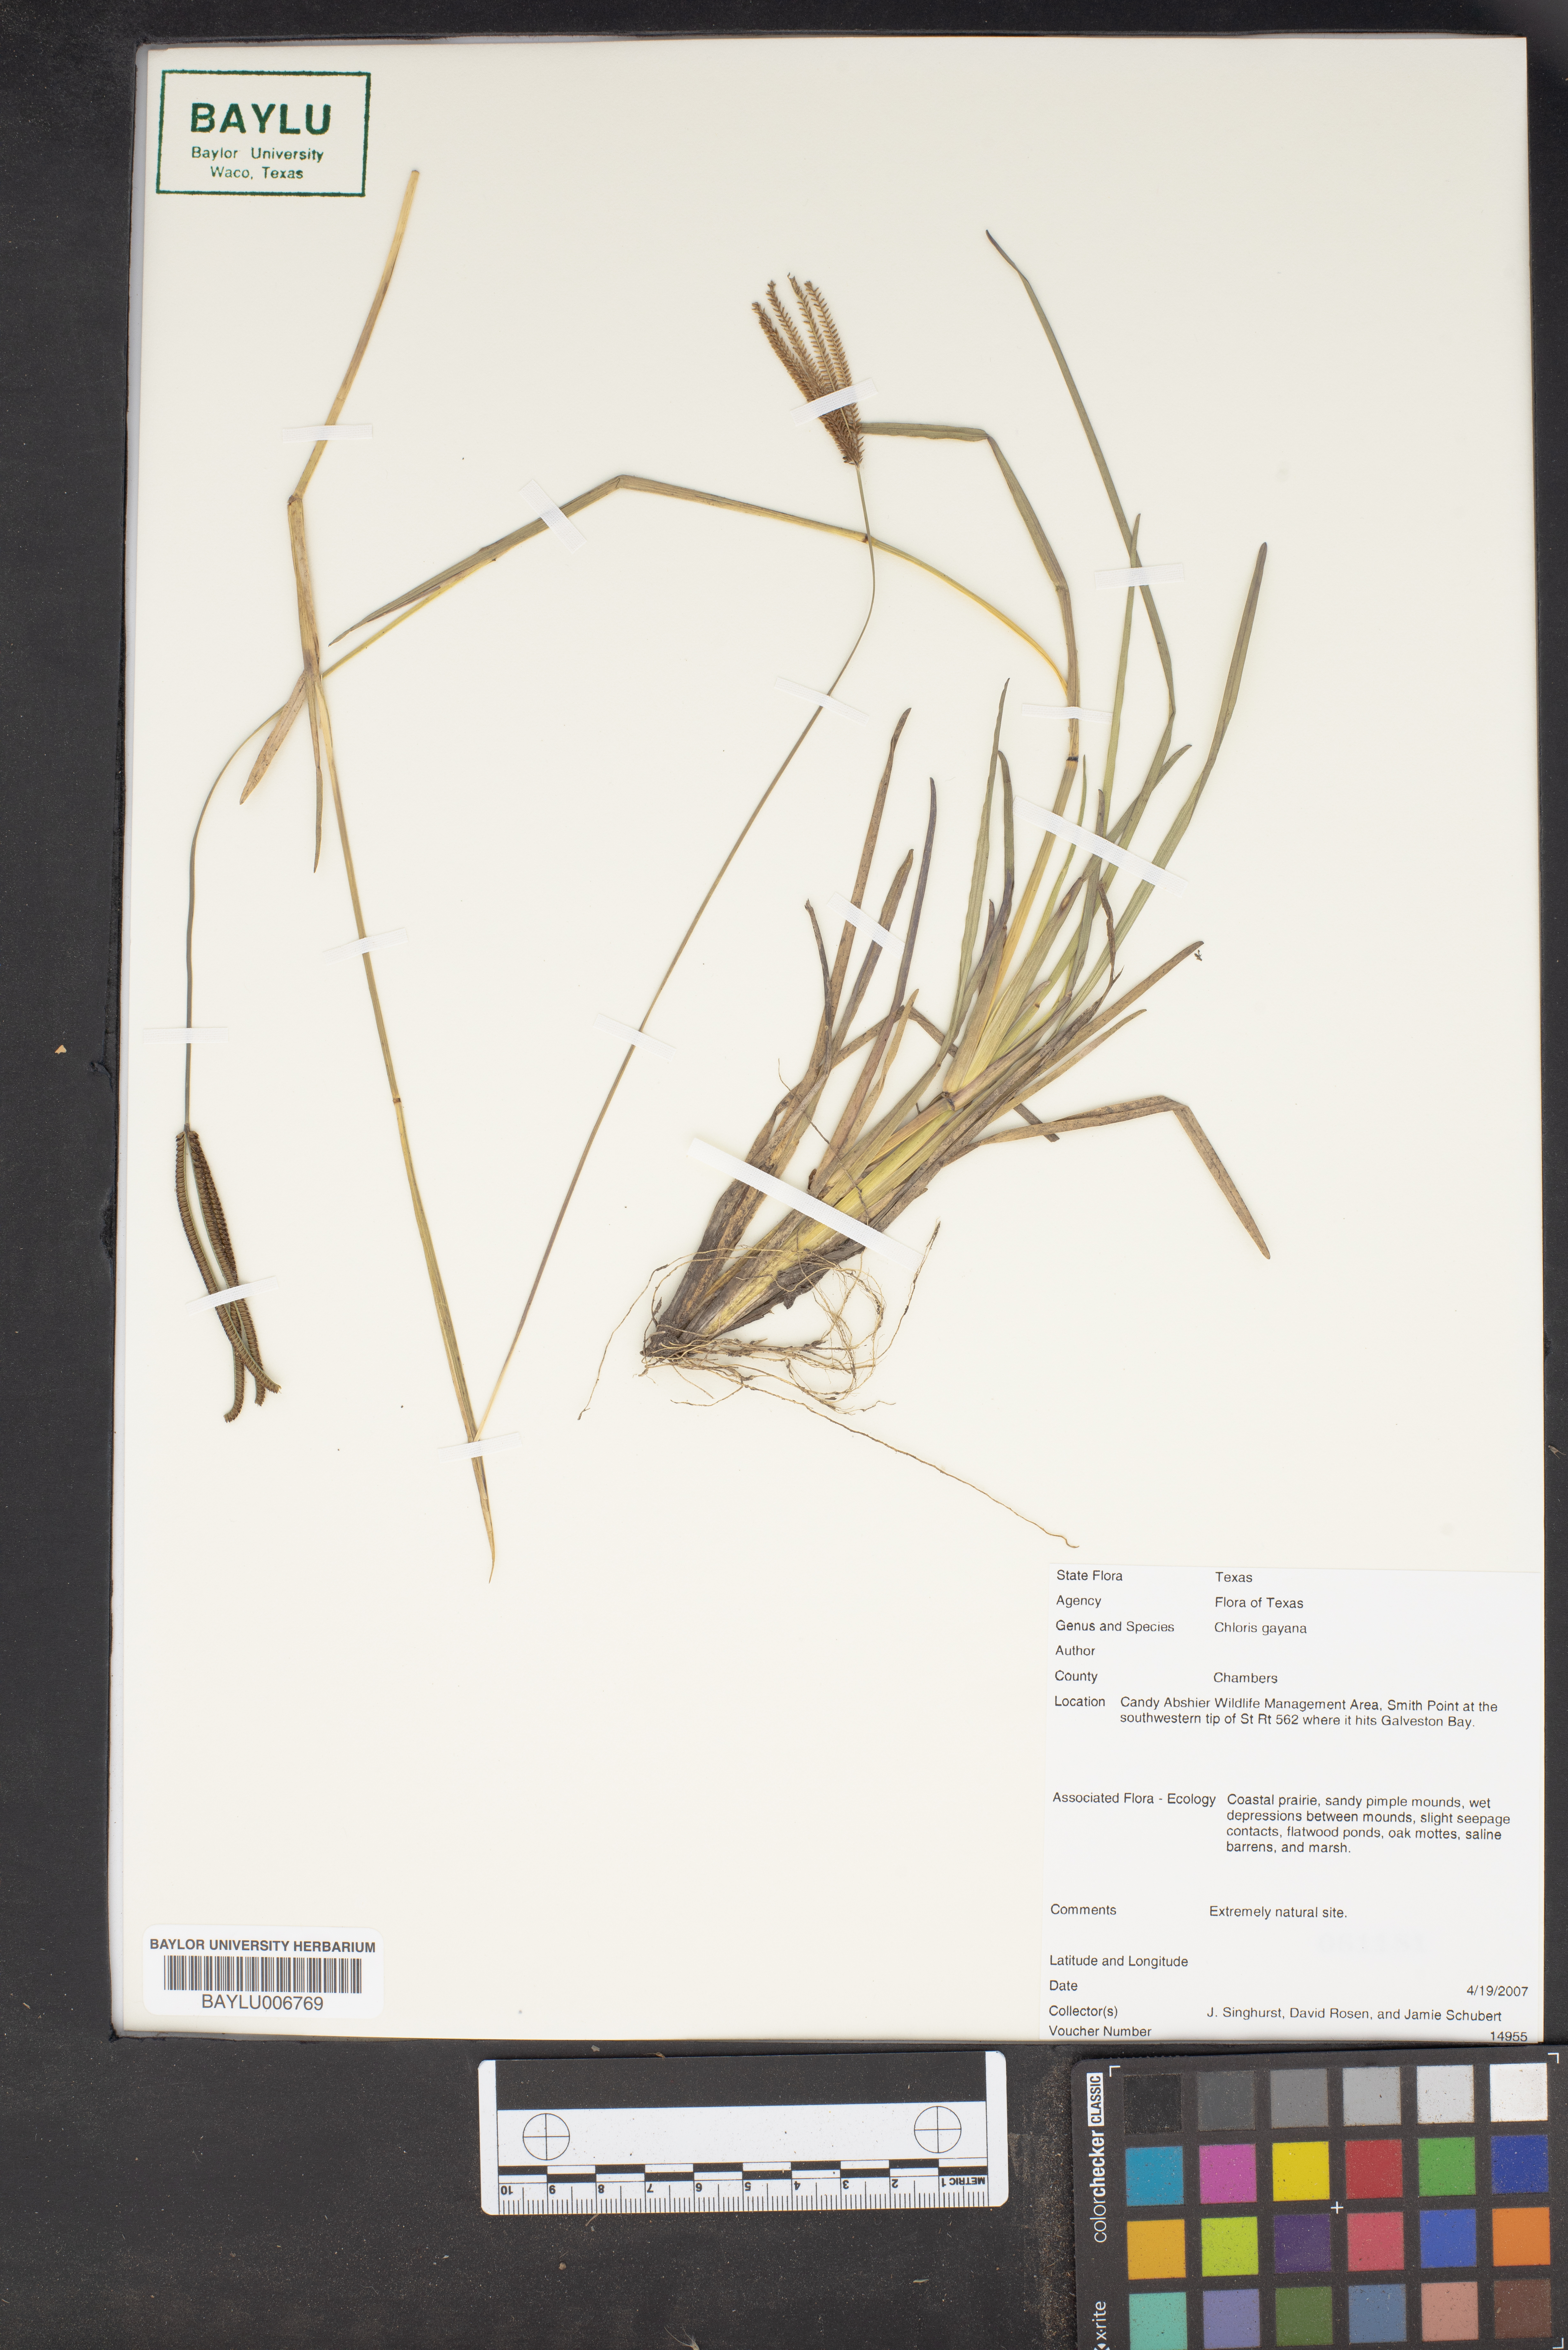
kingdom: Plantae
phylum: Tracheophyta
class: Liliopsida
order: Poales
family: Poaceae
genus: Chloris
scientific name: Chloris gayana
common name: Rhodes grass
